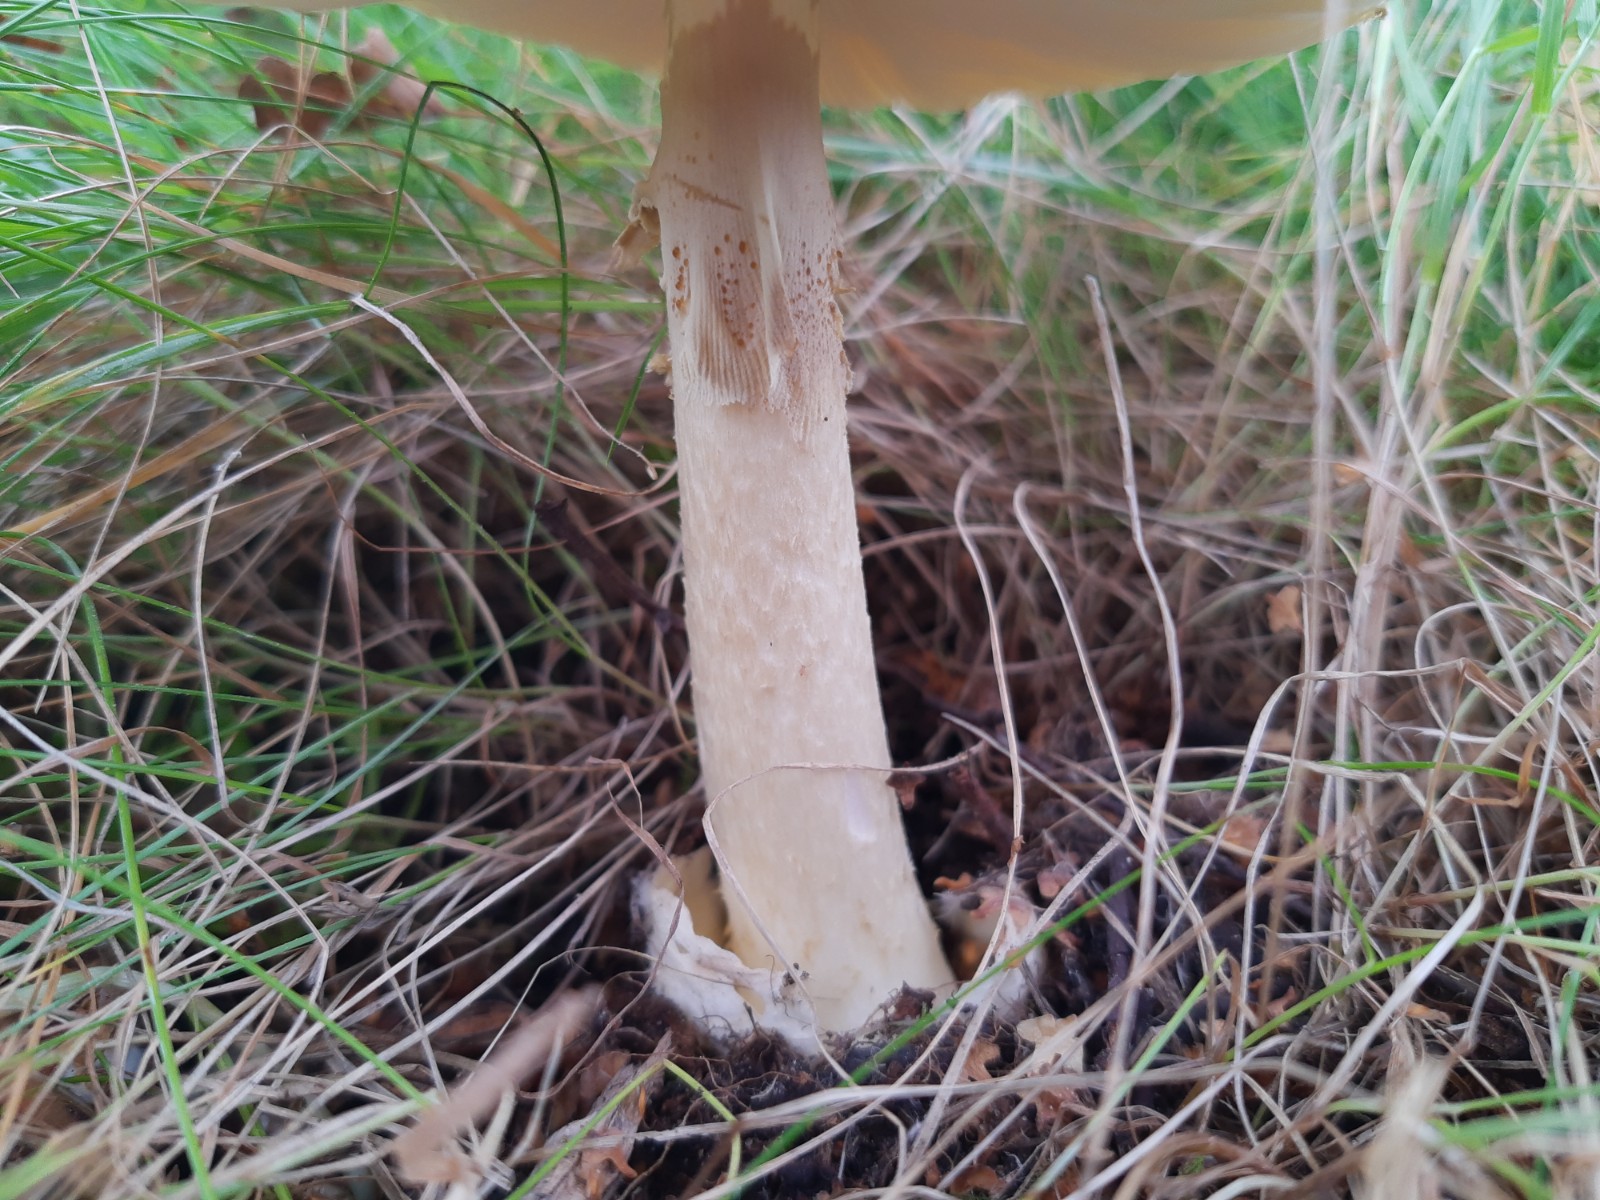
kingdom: Fungi
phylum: Basidiomycota
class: Agaricomycetes
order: Agaricales
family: Amanitaceae
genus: Amanita
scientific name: Amanita phalloides
